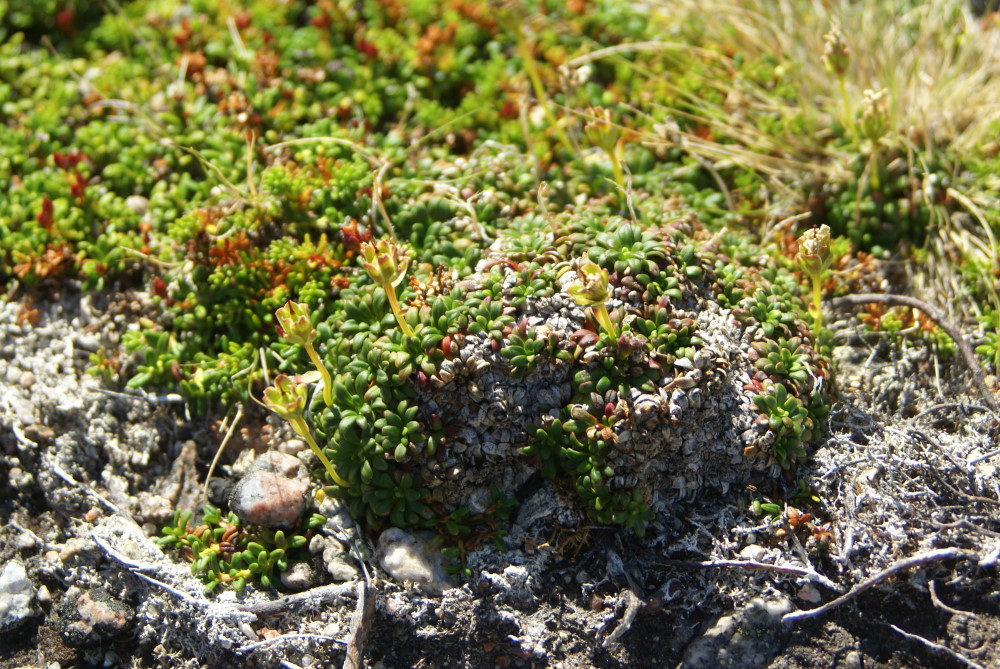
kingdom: Plantae
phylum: Tracheophyta
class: Magnoliopsida
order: Ericales
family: Diapensiaceae
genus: Diapensia
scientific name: Diapensia lapponica
